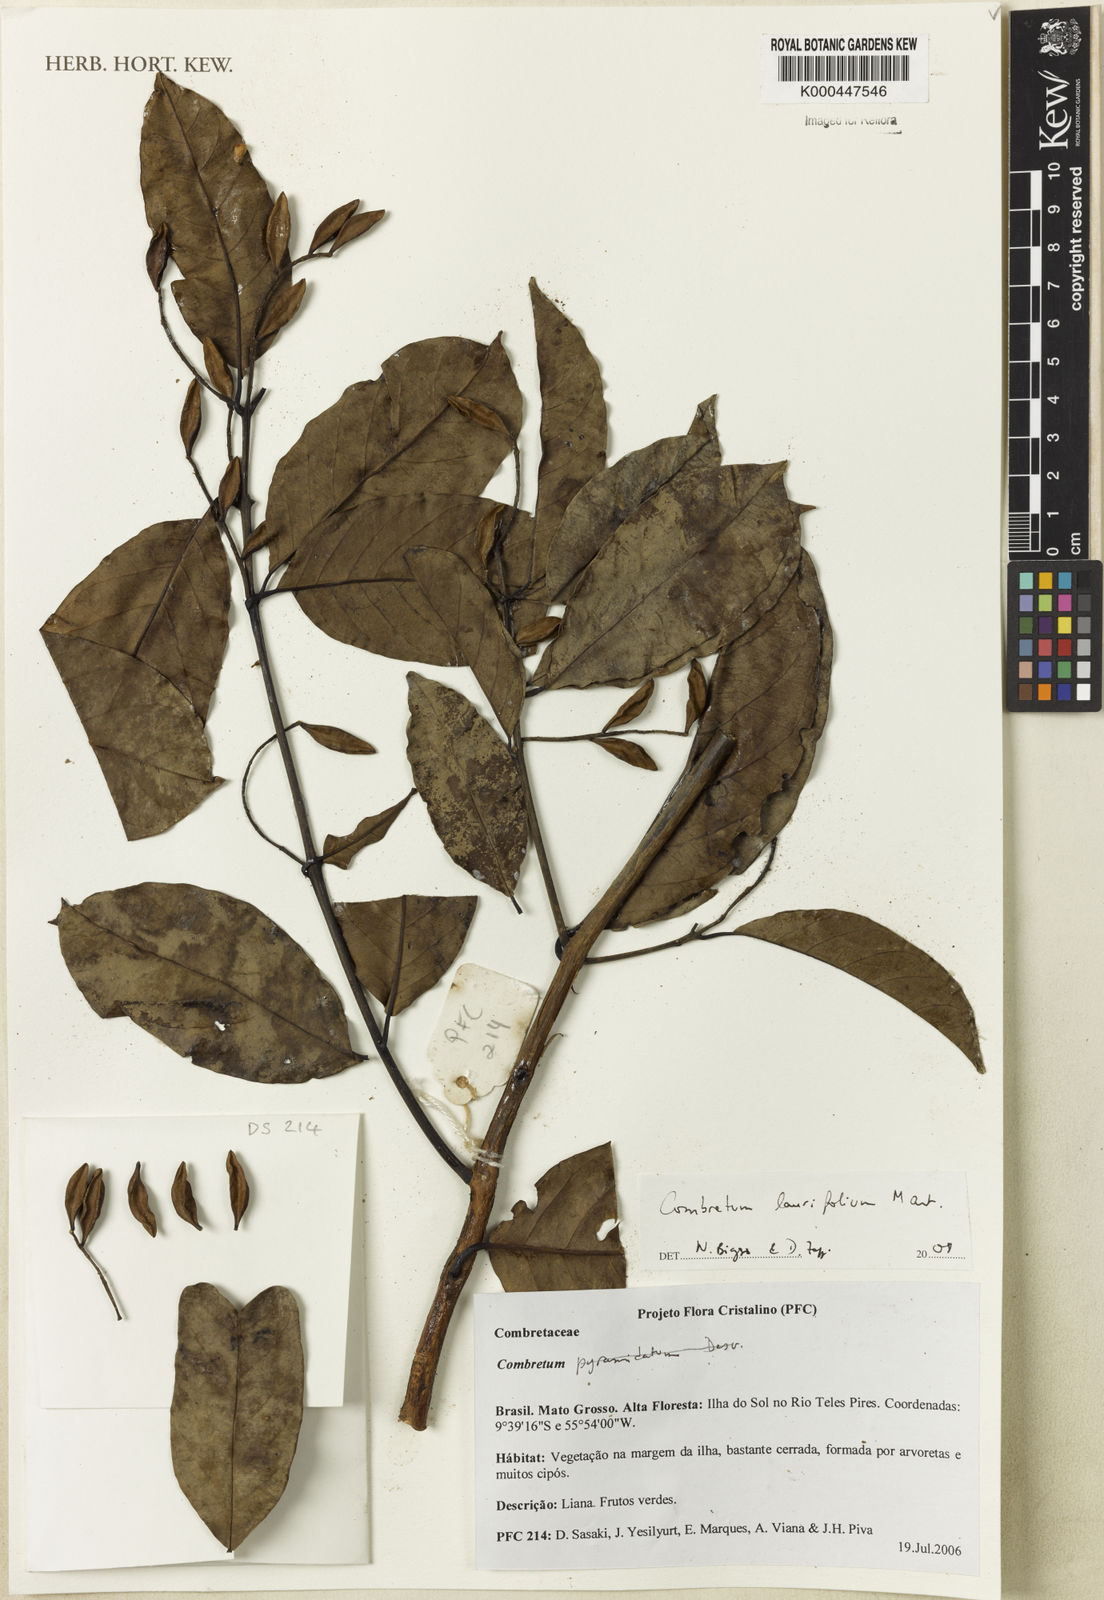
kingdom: Plantae
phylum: Tracheophyta
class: Magnoliopsida
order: Myrtales
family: Combretaceae
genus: Combretum
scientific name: Combretum laurifolium
